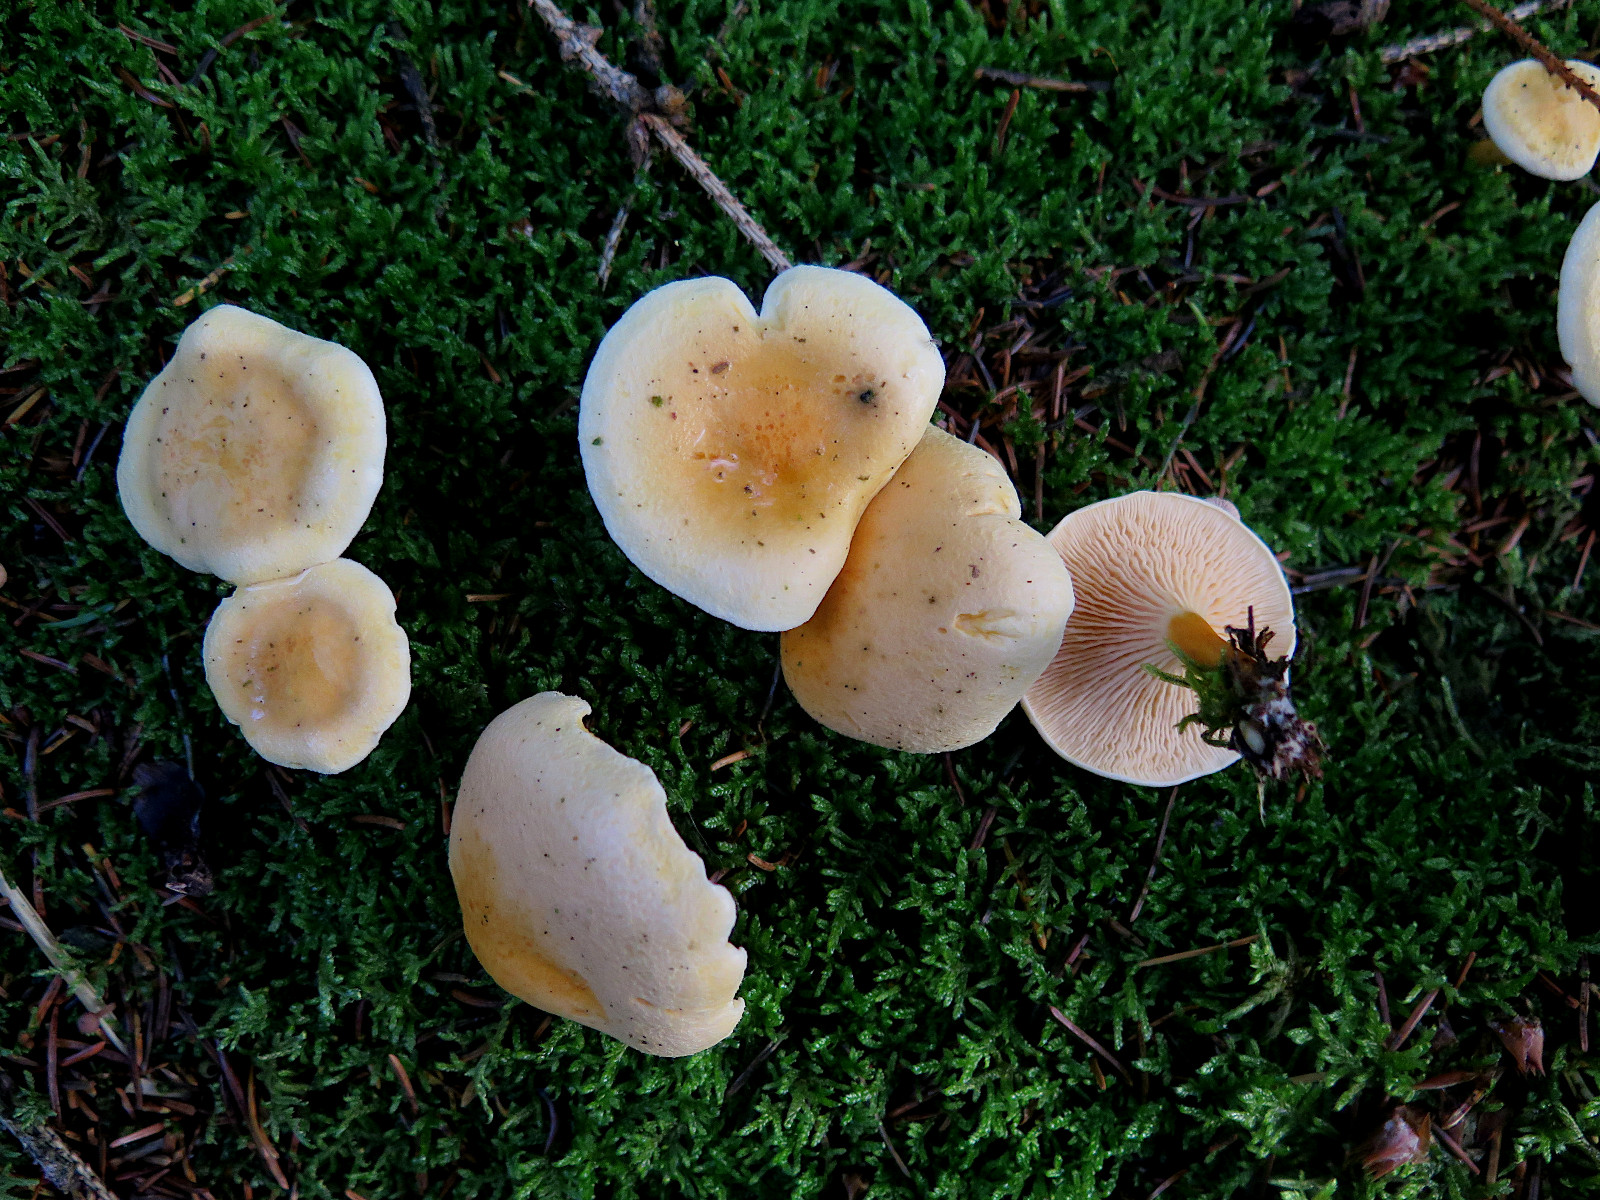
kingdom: Fungi
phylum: Basidiomycota
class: Agaricomycetes
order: Boletales
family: Hygrophoropsidaceae
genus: Hygrophoropsis
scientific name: Hygrophoropsis aurantiaca
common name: almindelig orangekantarel
